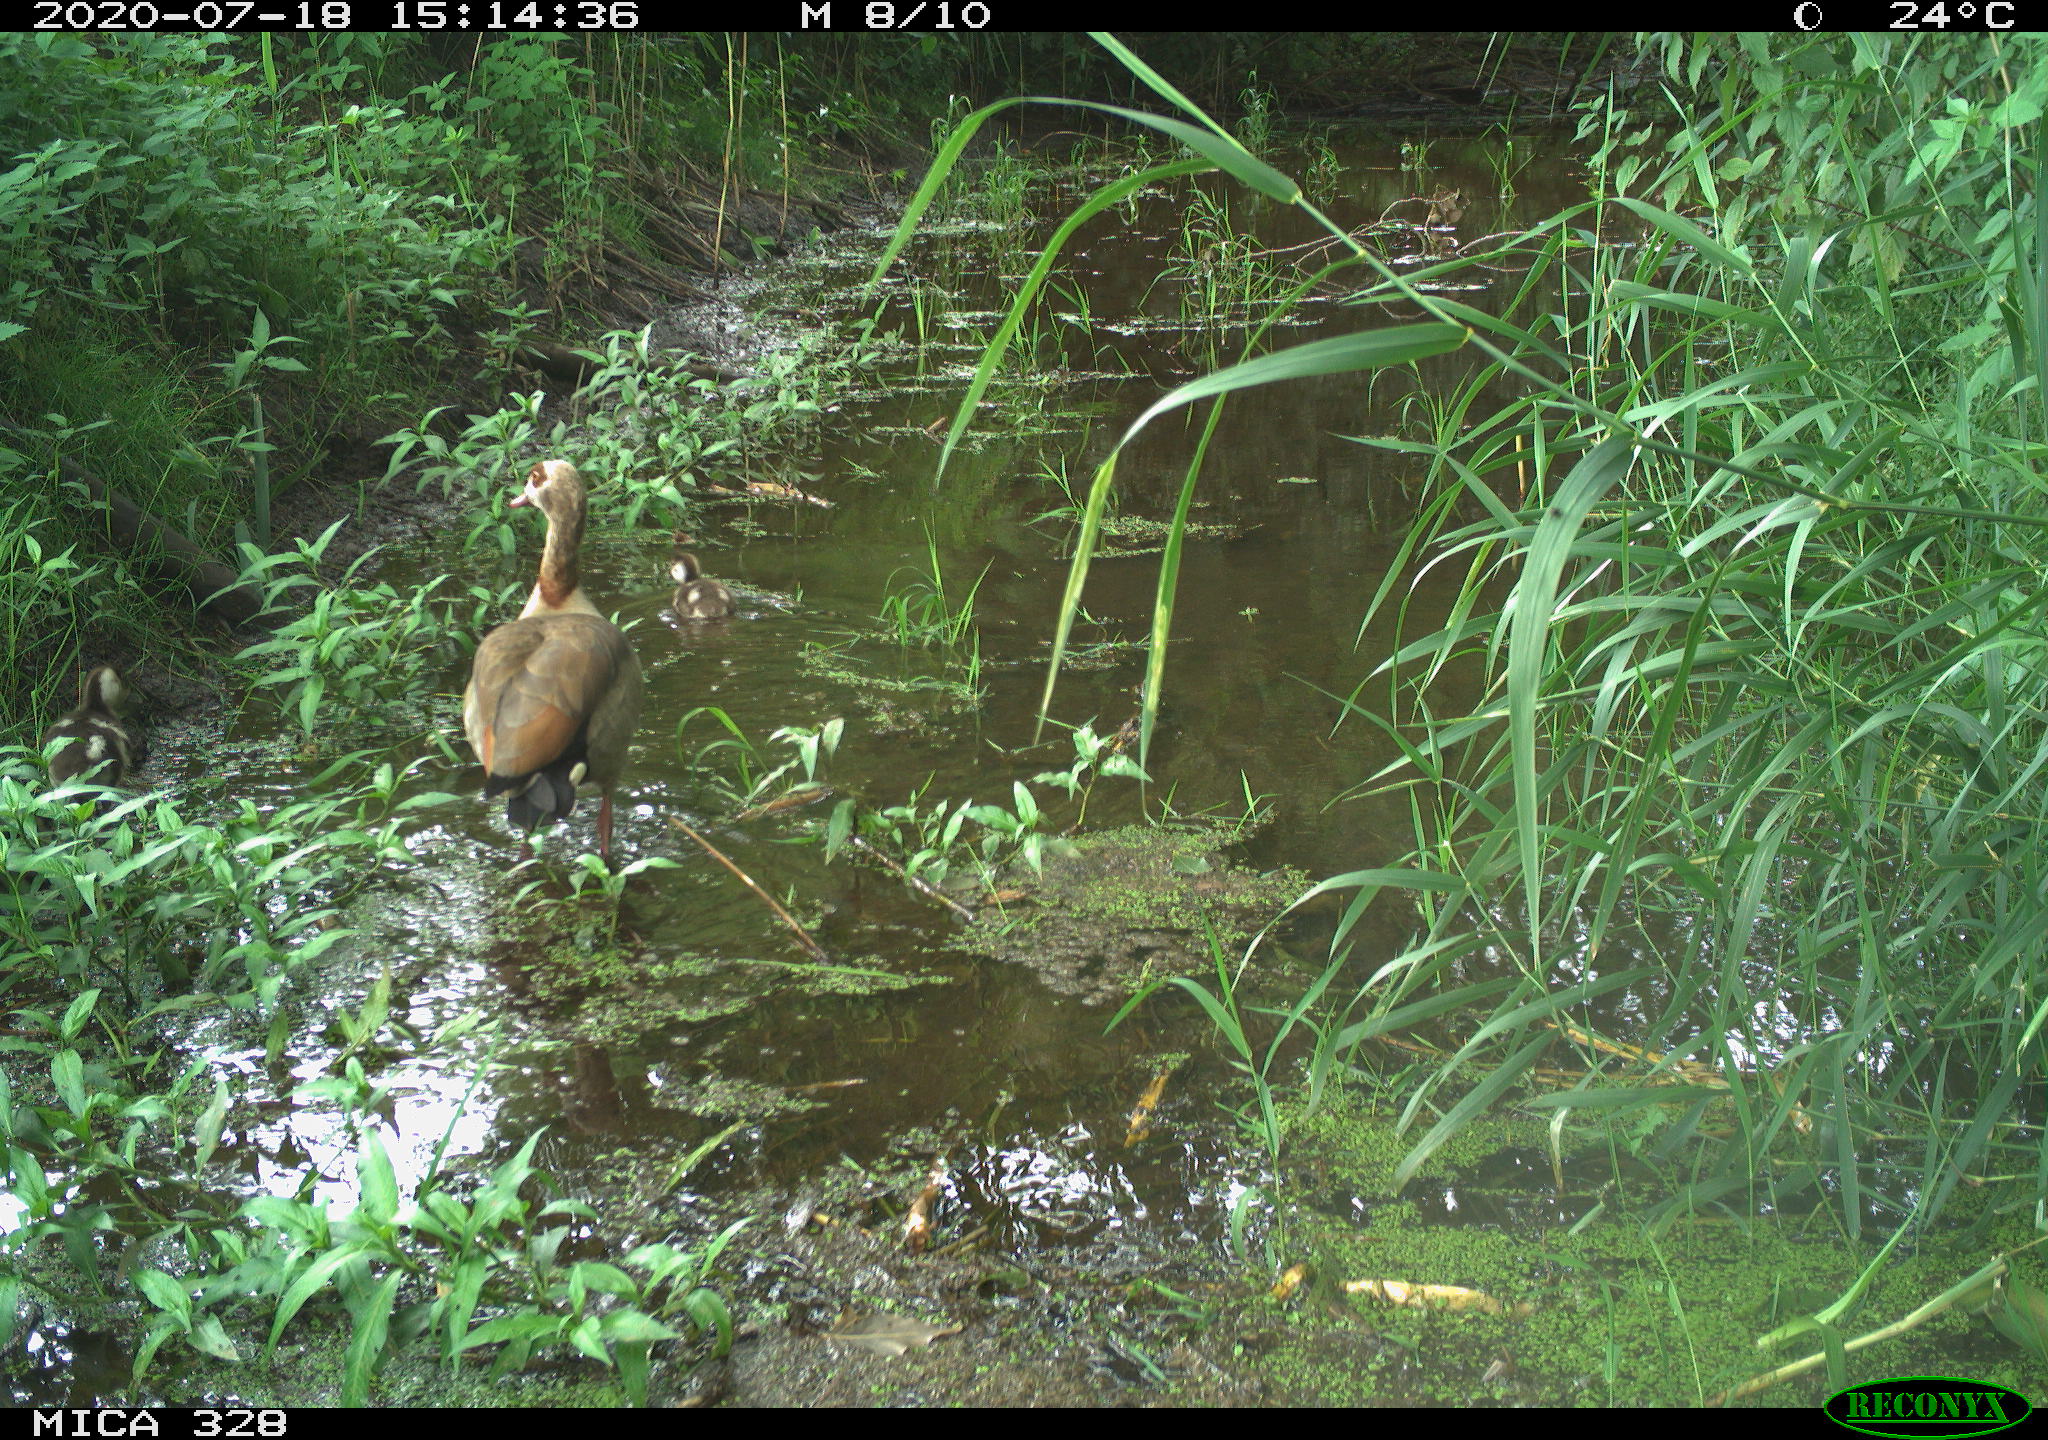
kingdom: Animalia
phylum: Chordata
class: Aves
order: Anseriformes
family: Anatidae
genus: Alopochen
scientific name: Alopochen aegyptiaca
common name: Egyptian goose
